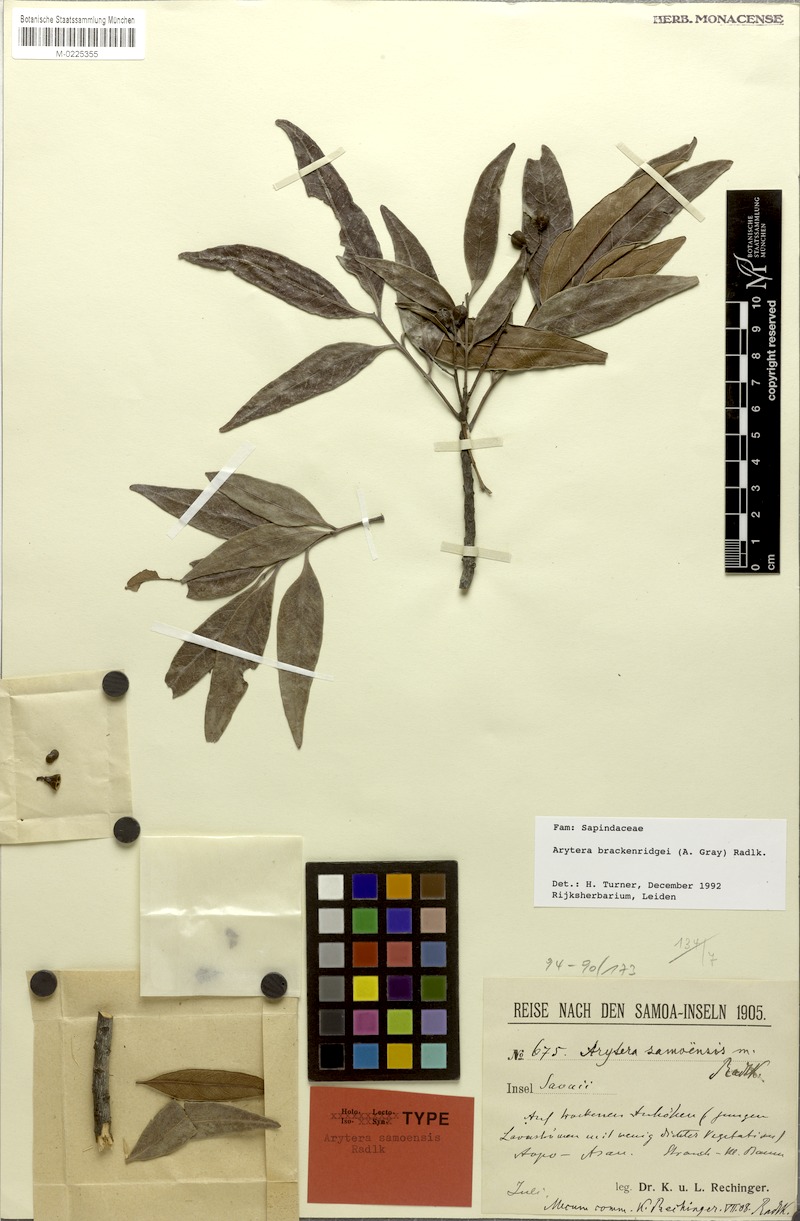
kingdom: Plantae
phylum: Tracheophyta
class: Magnoliopsida
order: Sapindales
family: Sapindaceae
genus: Lepidocupania
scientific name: Lepidocupania brackenridgei
